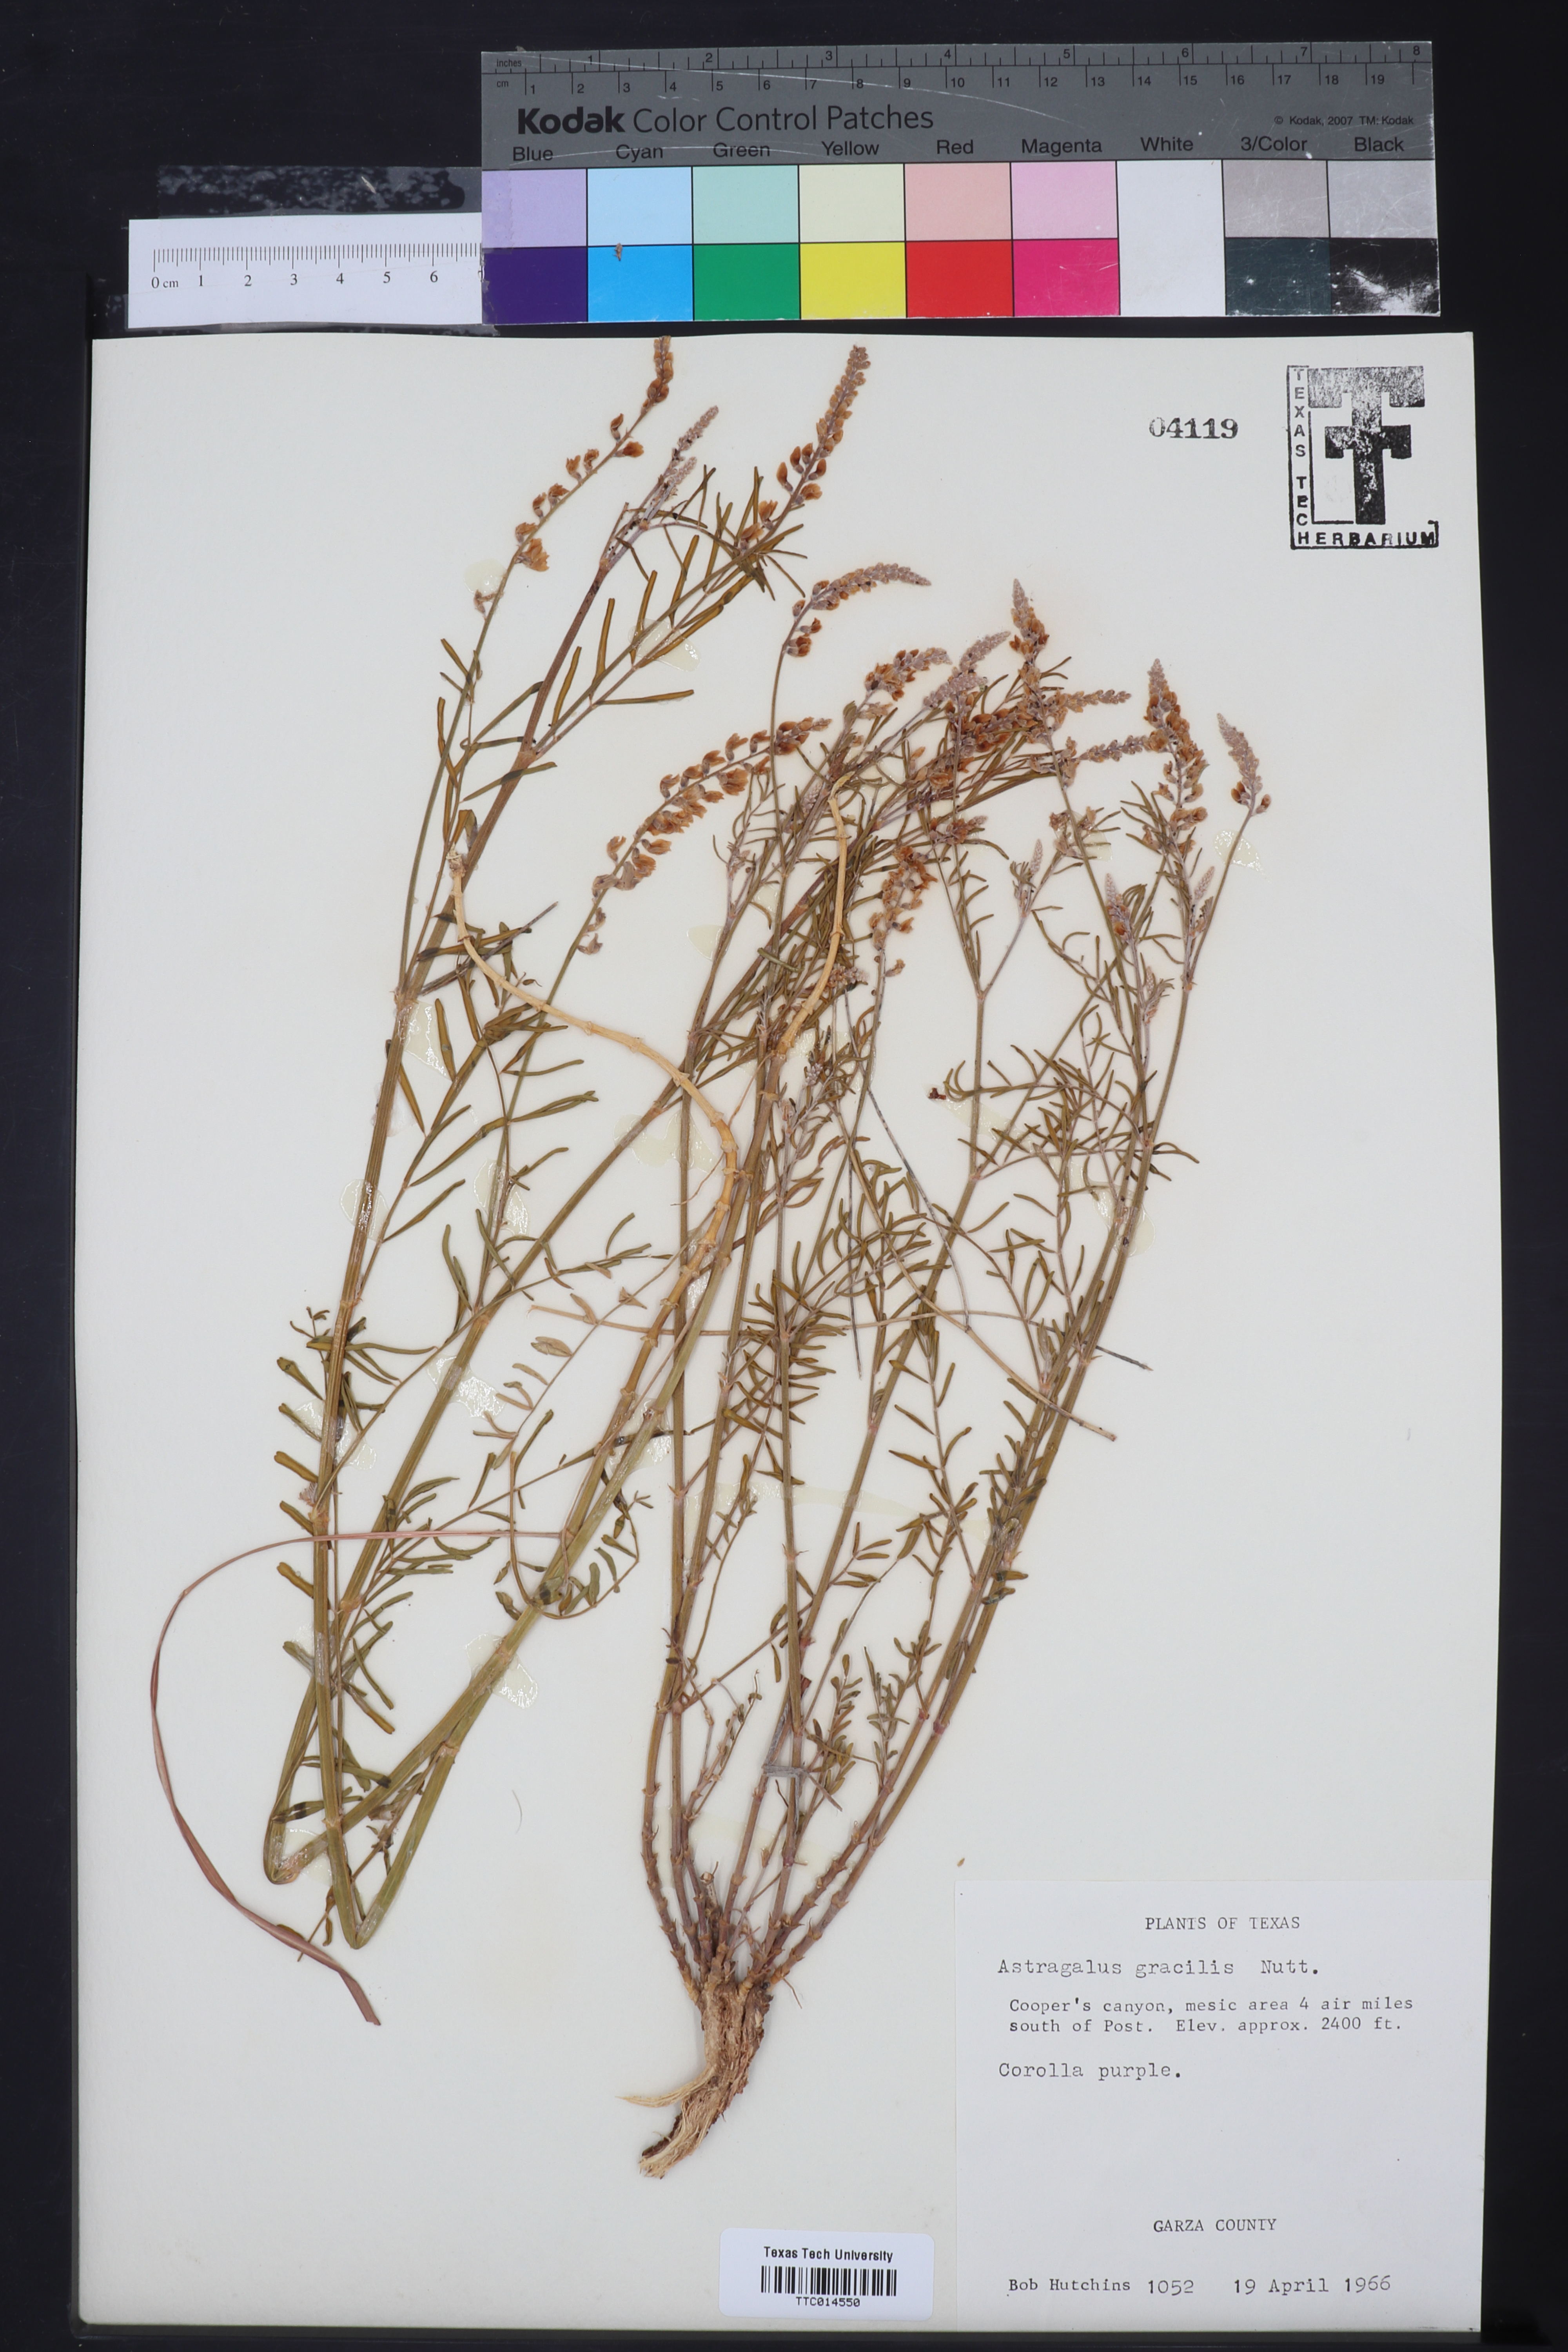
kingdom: Plantae
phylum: Tracheophyta
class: Magnoliopsida
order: Fabales
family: Fabaceae
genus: Astragalus
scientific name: Astragalus gracilis
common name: Slender milk-vetch
